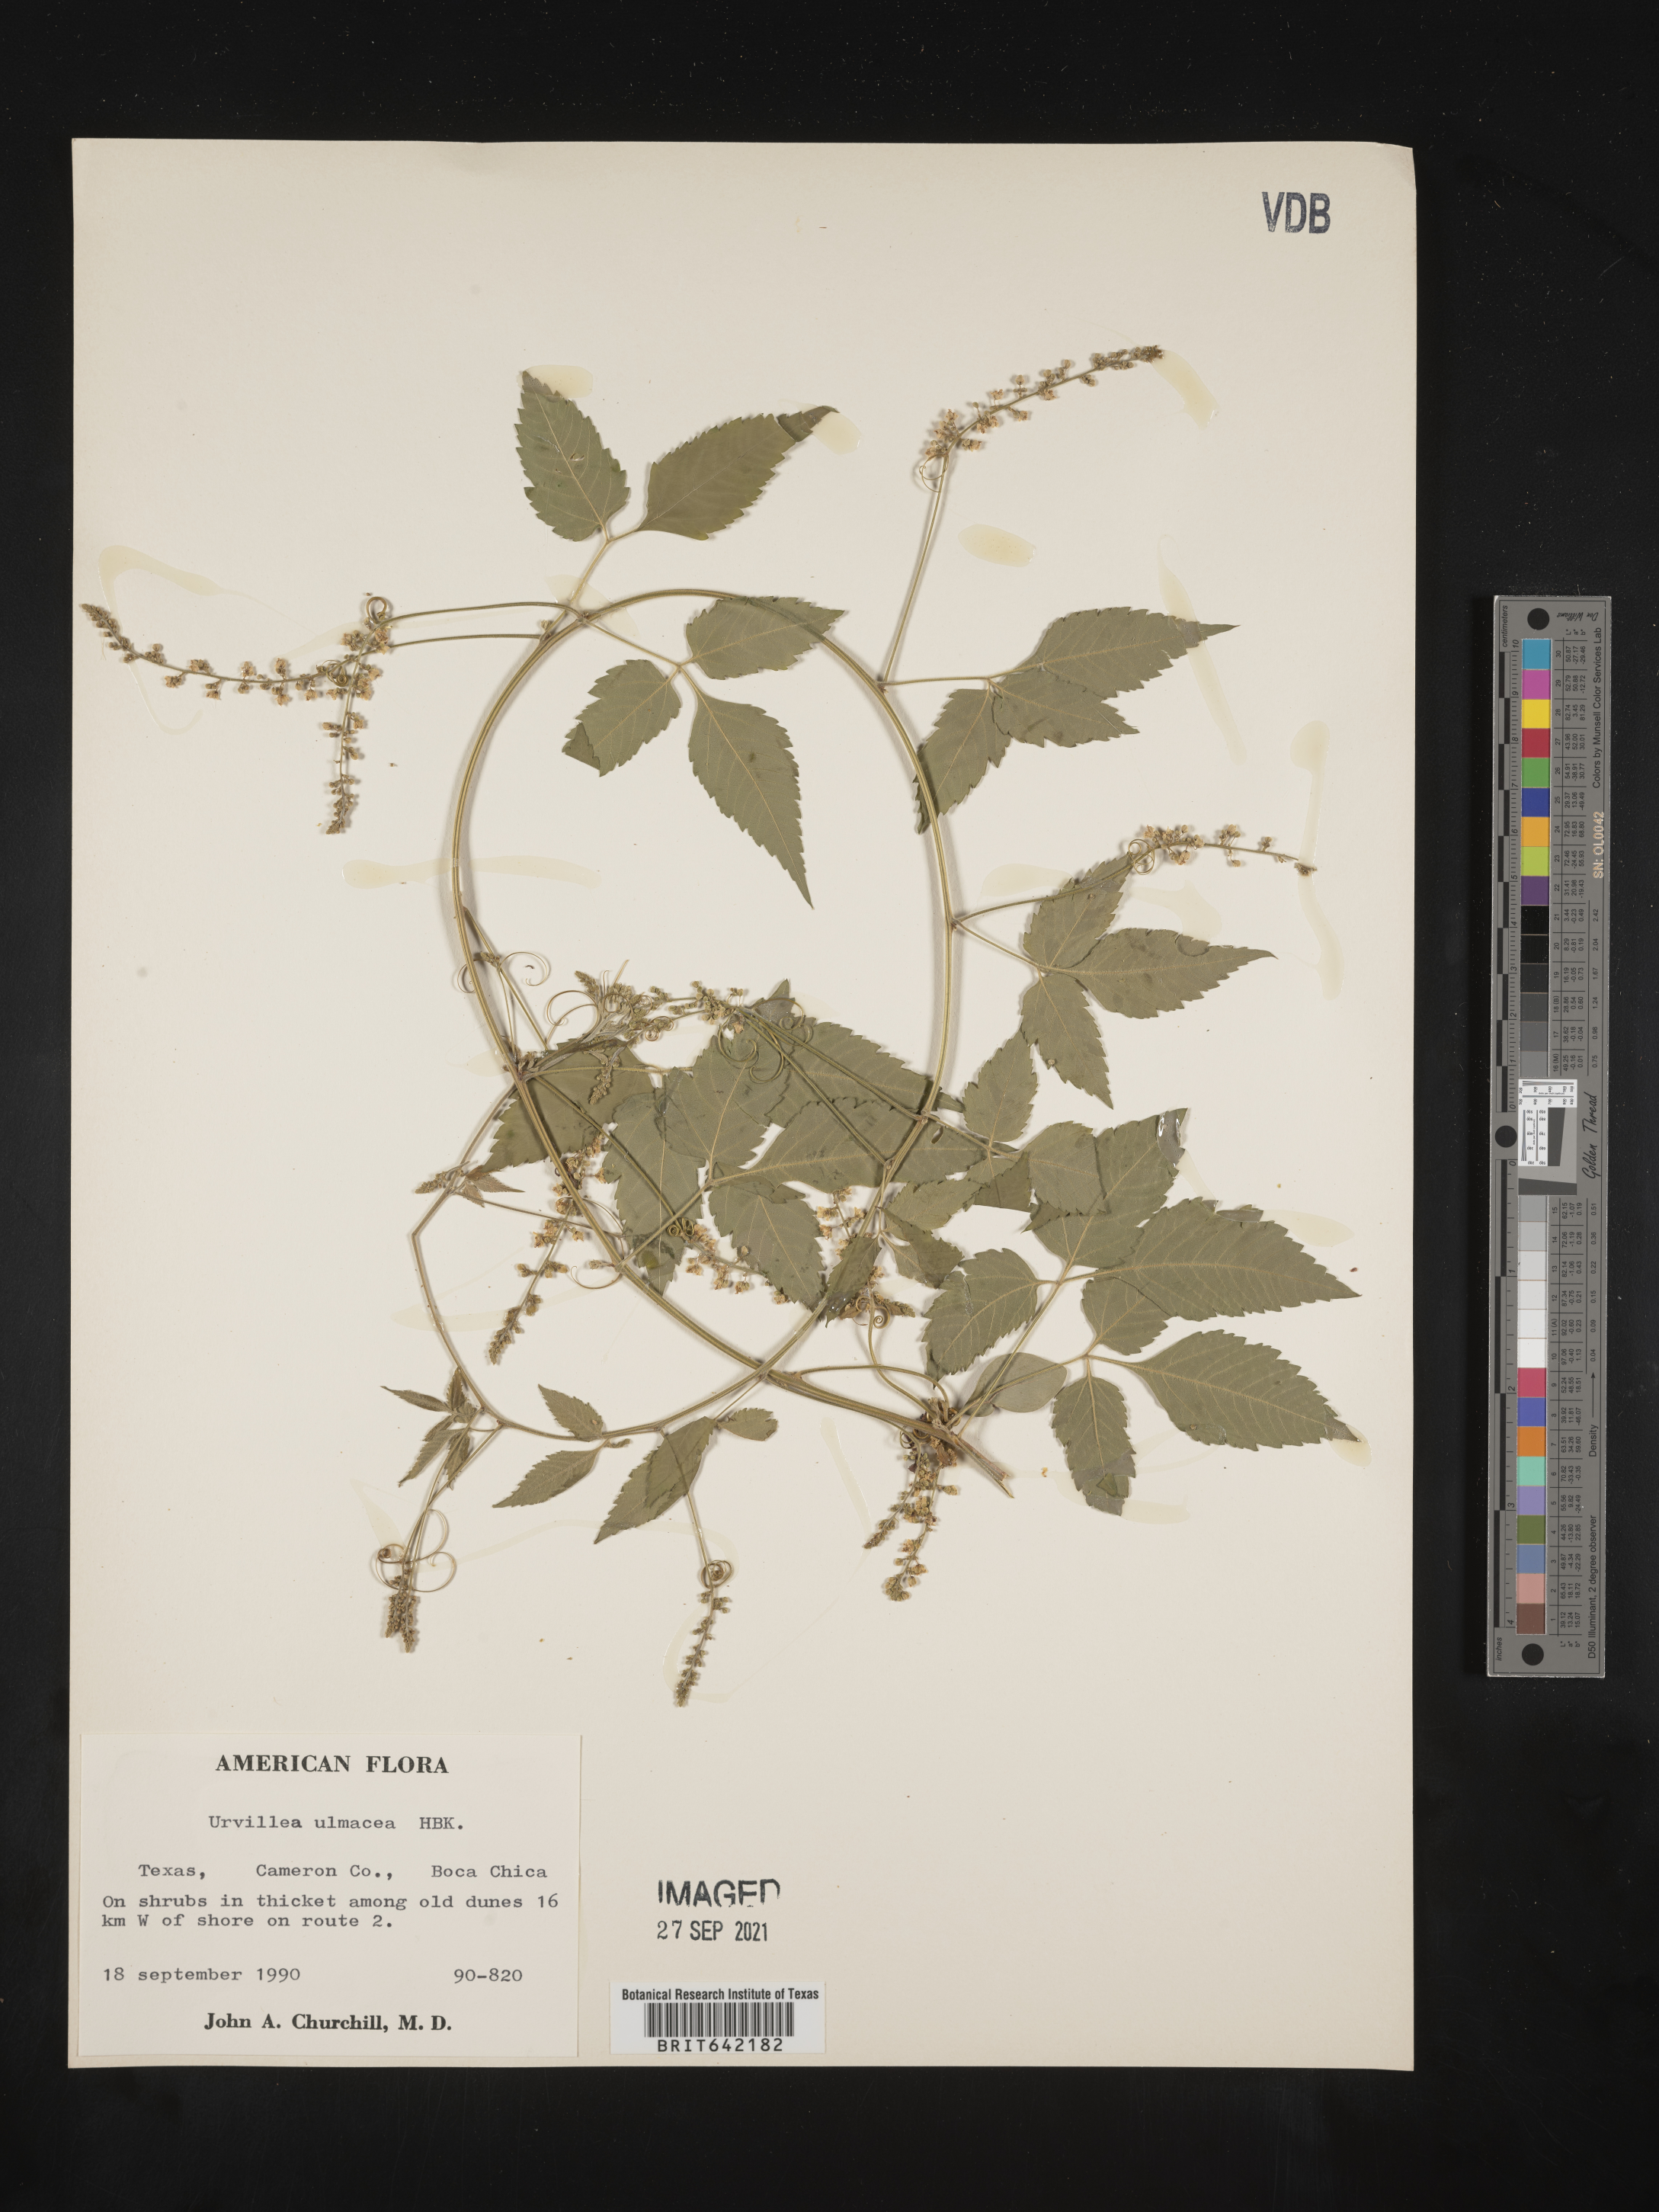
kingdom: Plantae
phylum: Tracheophyta
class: Magnoliopsida
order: Sapindales
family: Sapindaceae
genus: Urvillea
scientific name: Urvillea
